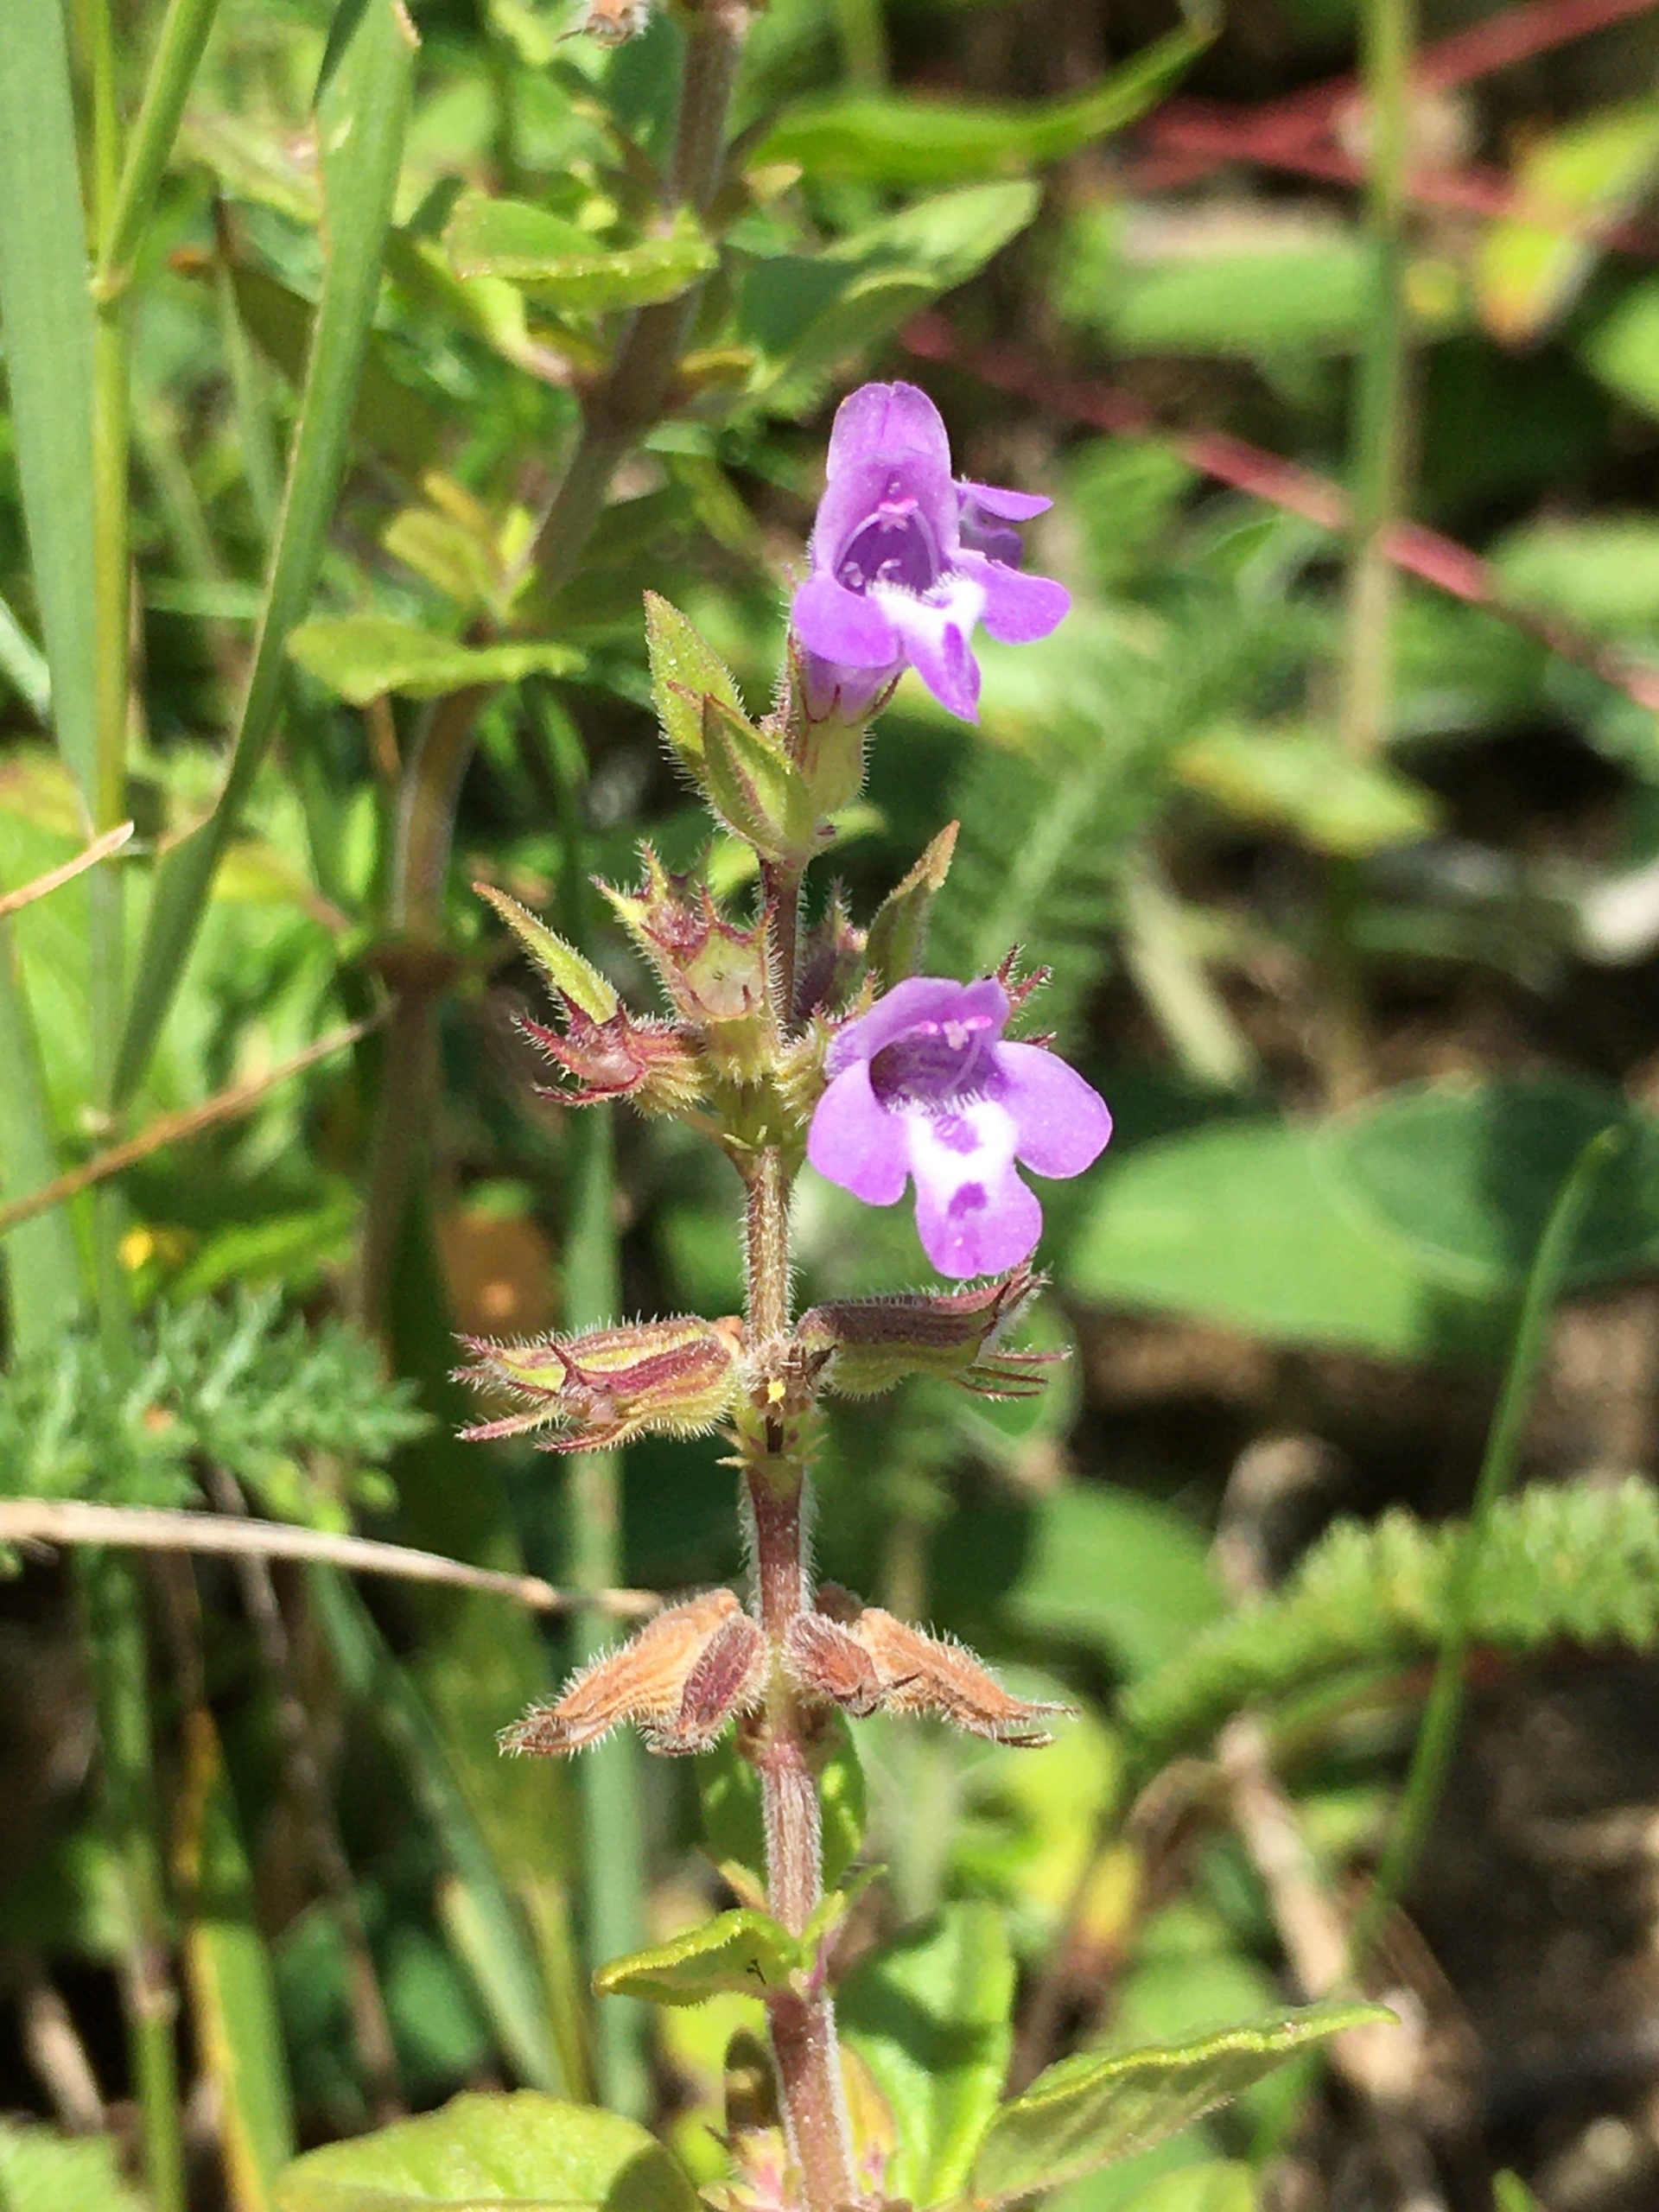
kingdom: Plantae
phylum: Tracheophyta
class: Magnoliopsida
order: Lamiales
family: Lamiaceae
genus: Clinopodium
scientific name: Clinopodium acinos
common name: Voldtimian
